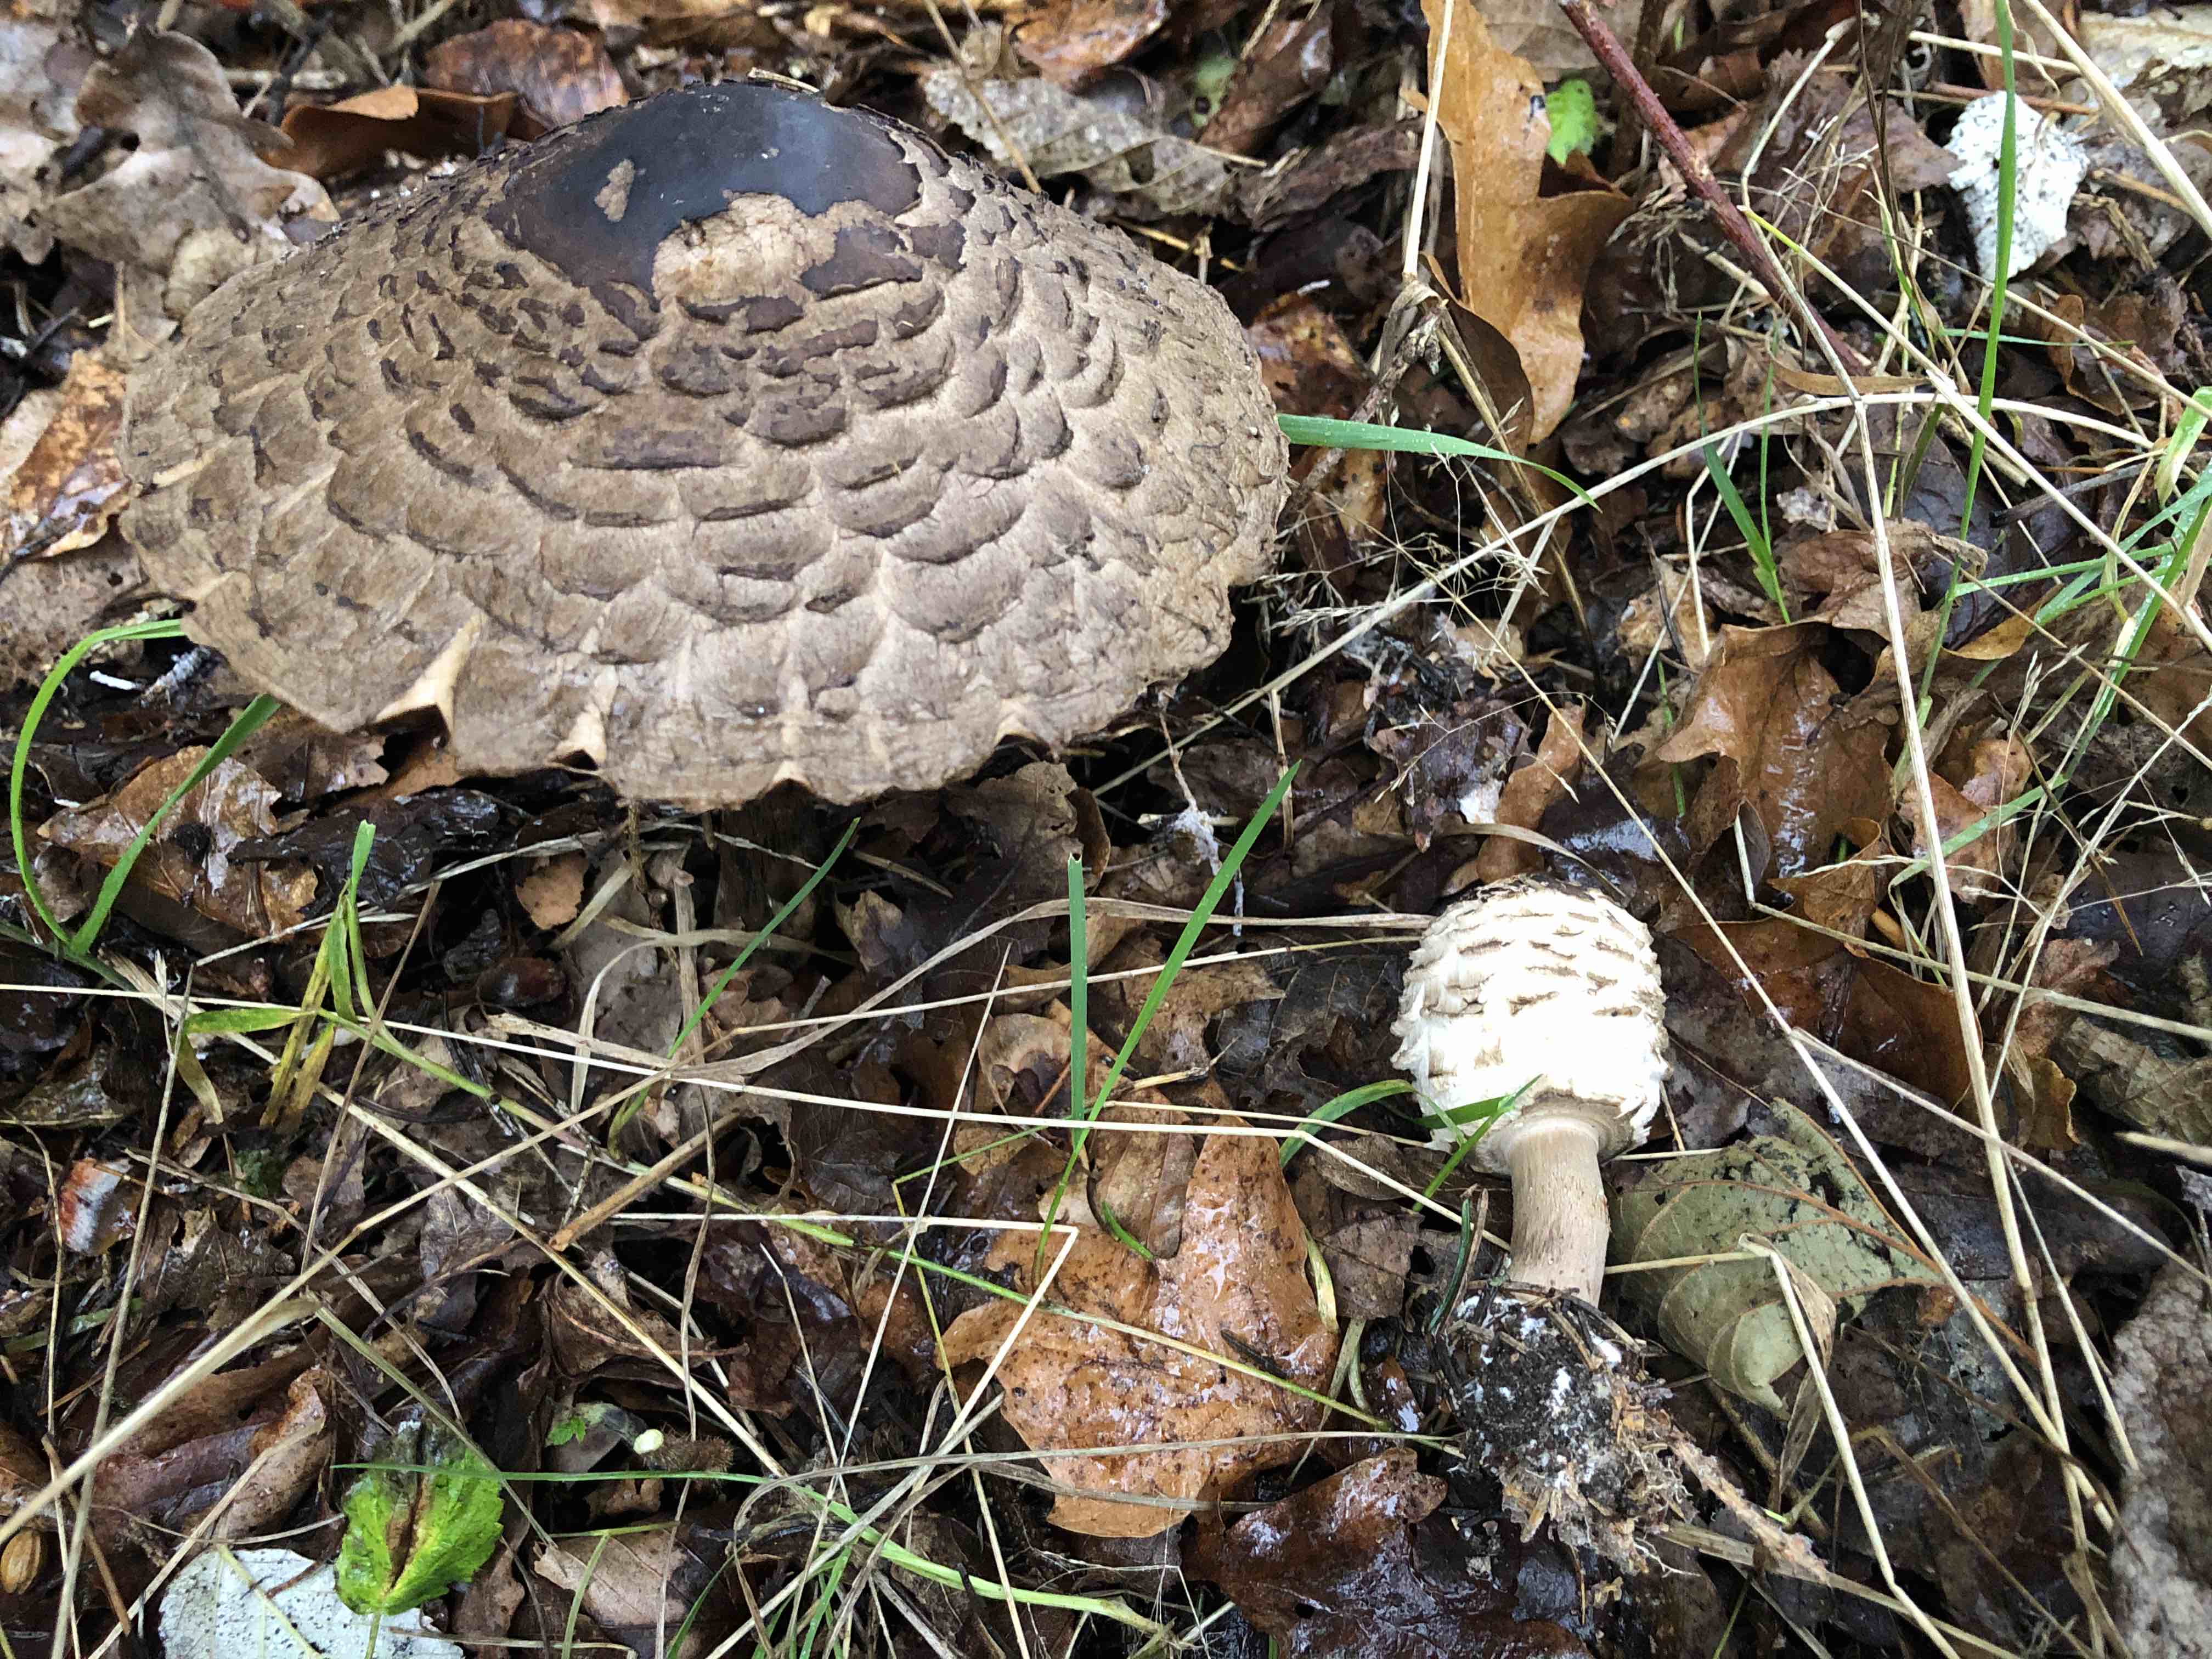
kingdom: Fungi
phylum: Basidiomycota
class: Agaricomycetes
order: Agaricales
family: Agaricaceae
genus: Chlorophyllum
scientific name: Chlorophyllum rhacodes
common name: ægte rabarberhat
